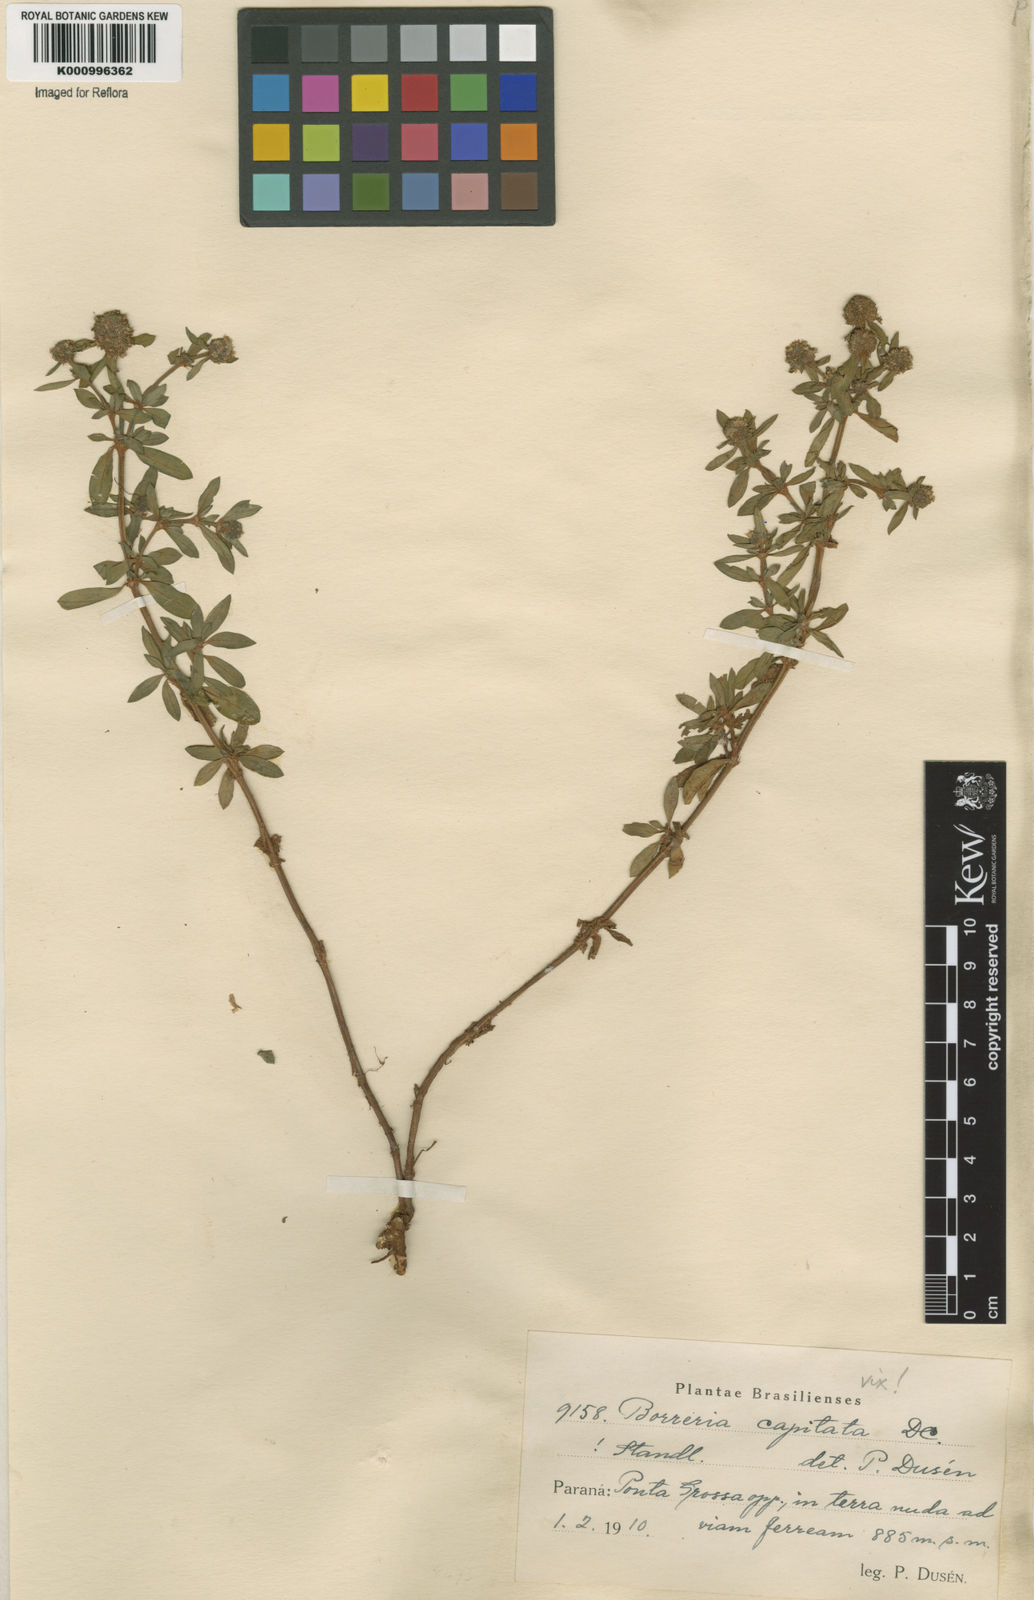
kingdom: Plantae
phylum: Tracheophyta
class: Magnoliopsida
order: Gentianales
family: Rubiaceae
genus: Spermacoce
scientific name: Spermacoce capitata
